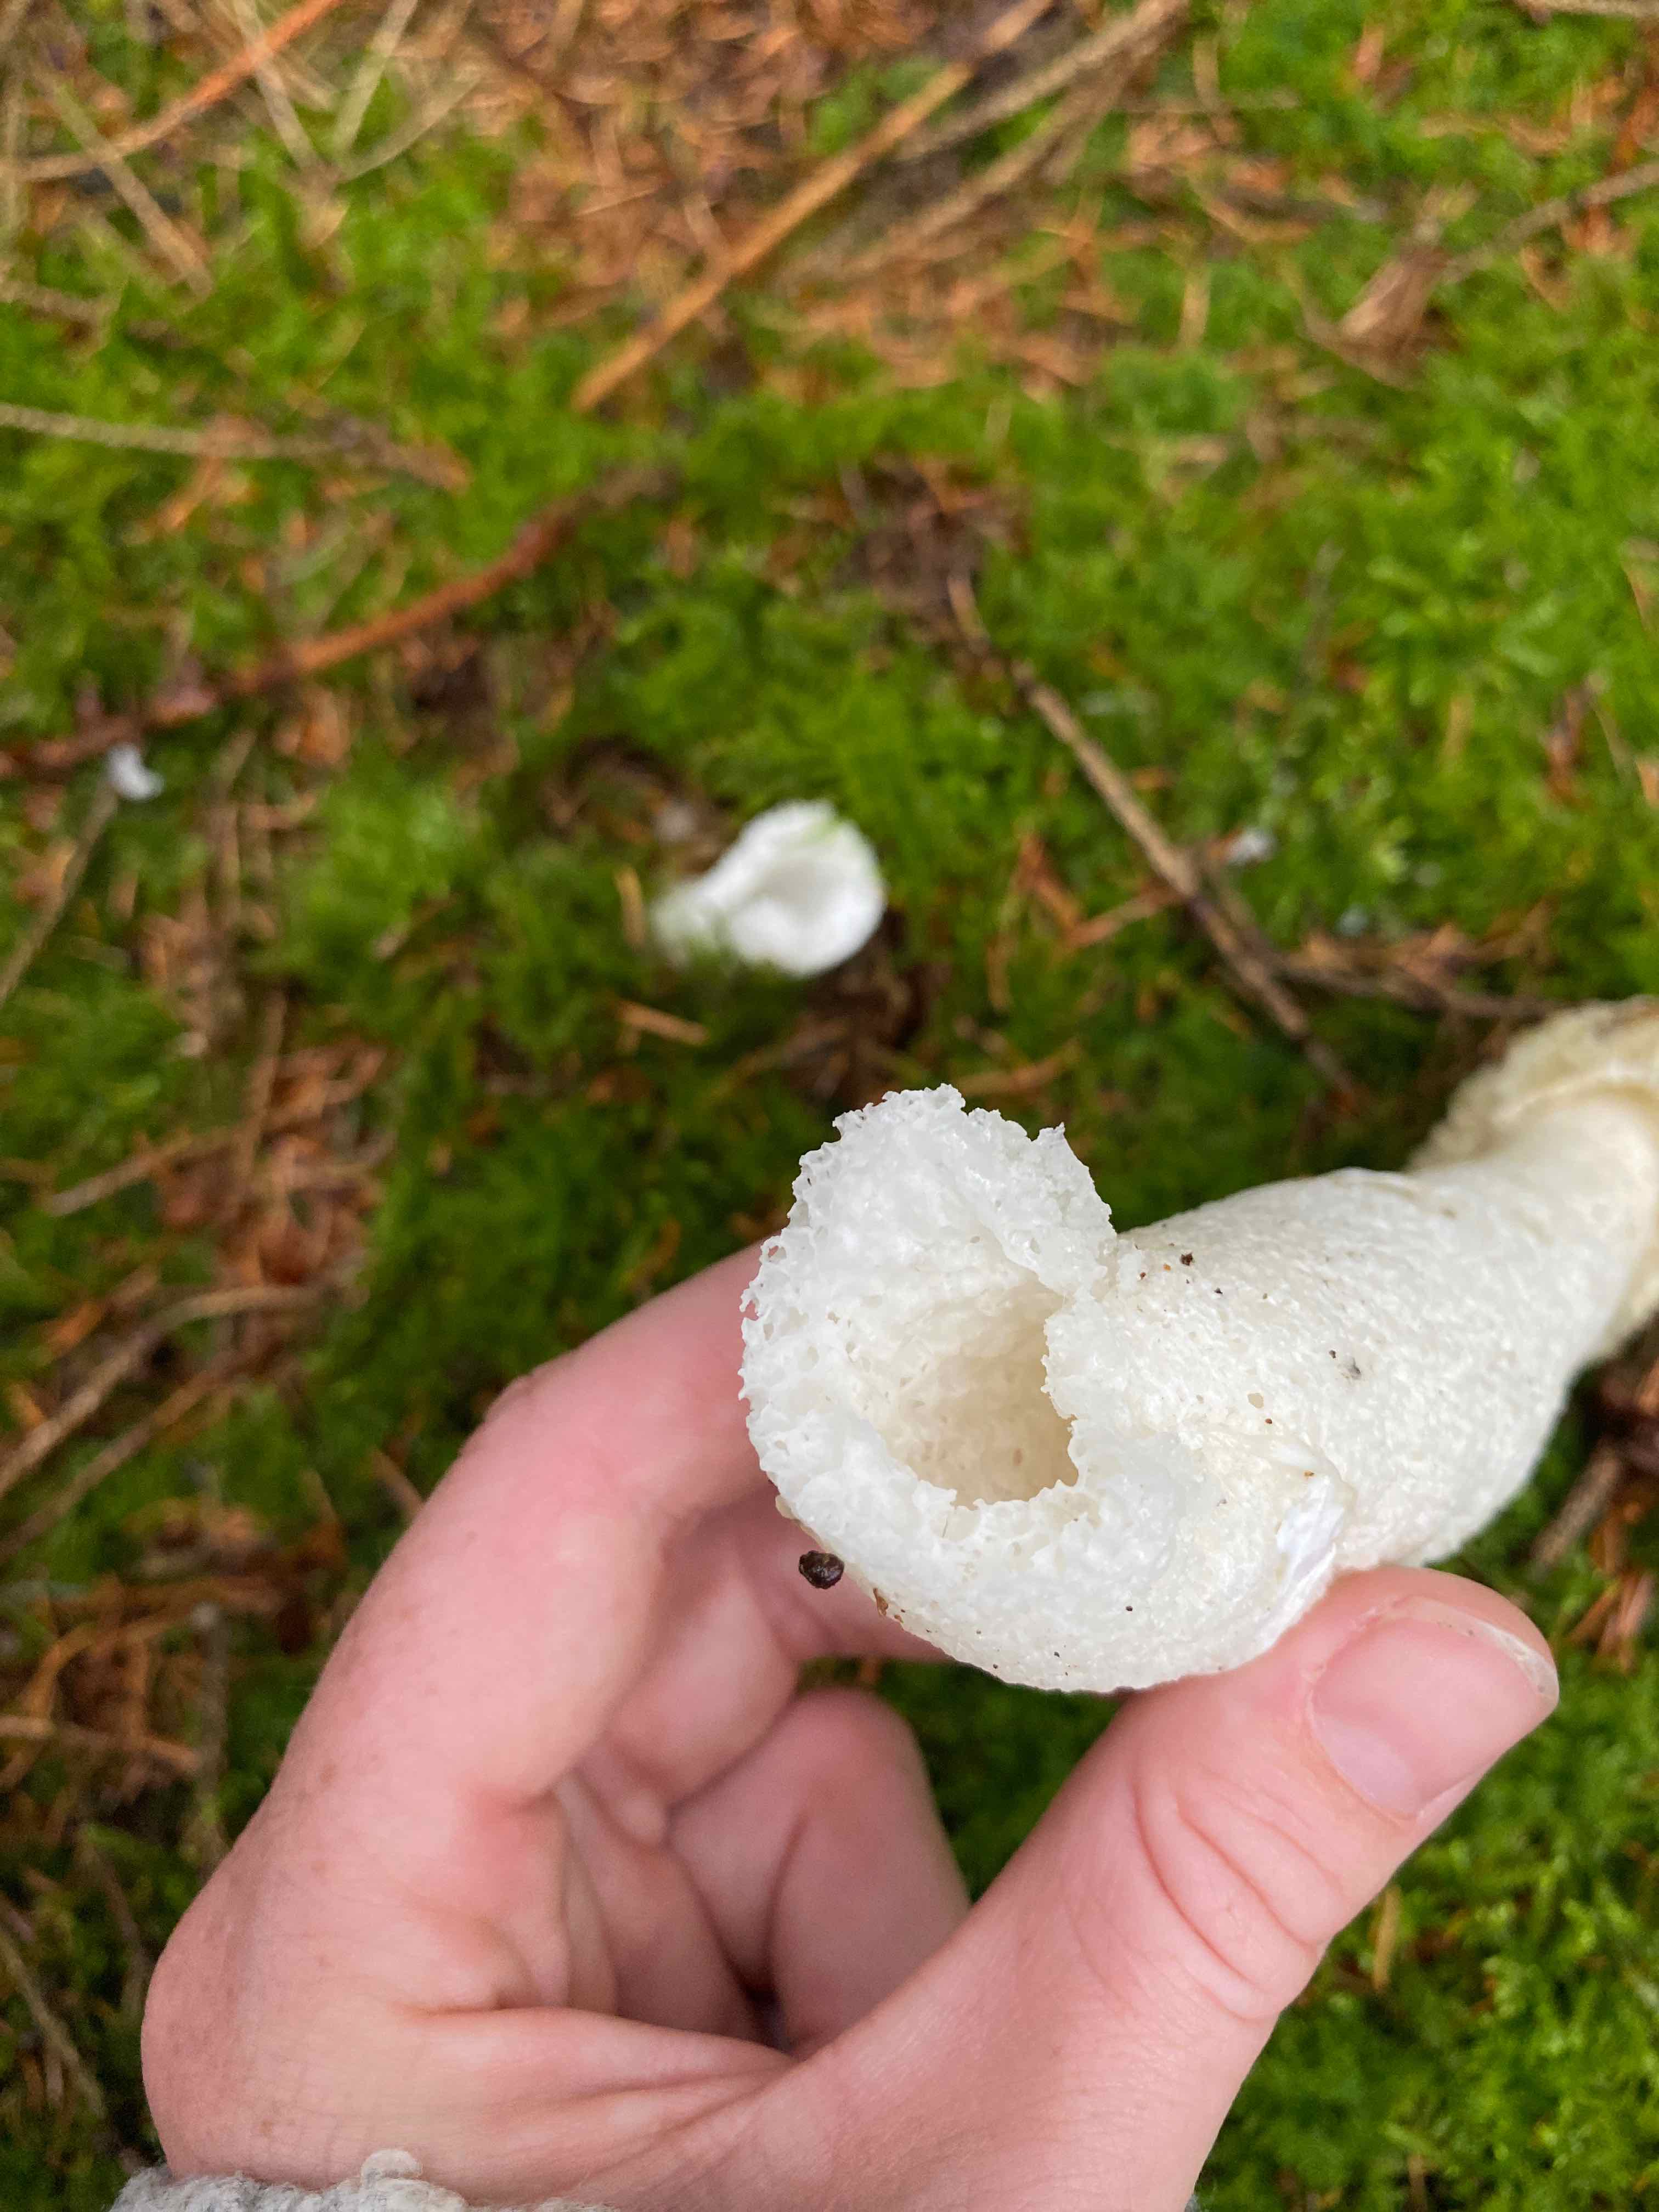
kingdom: Fungi
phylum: Basidiomycota
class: Agaricomycetes
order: Phallales
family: Phallaceae
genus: Phallus
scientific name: Phallus impudicus
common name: almindelig stinksvamp
